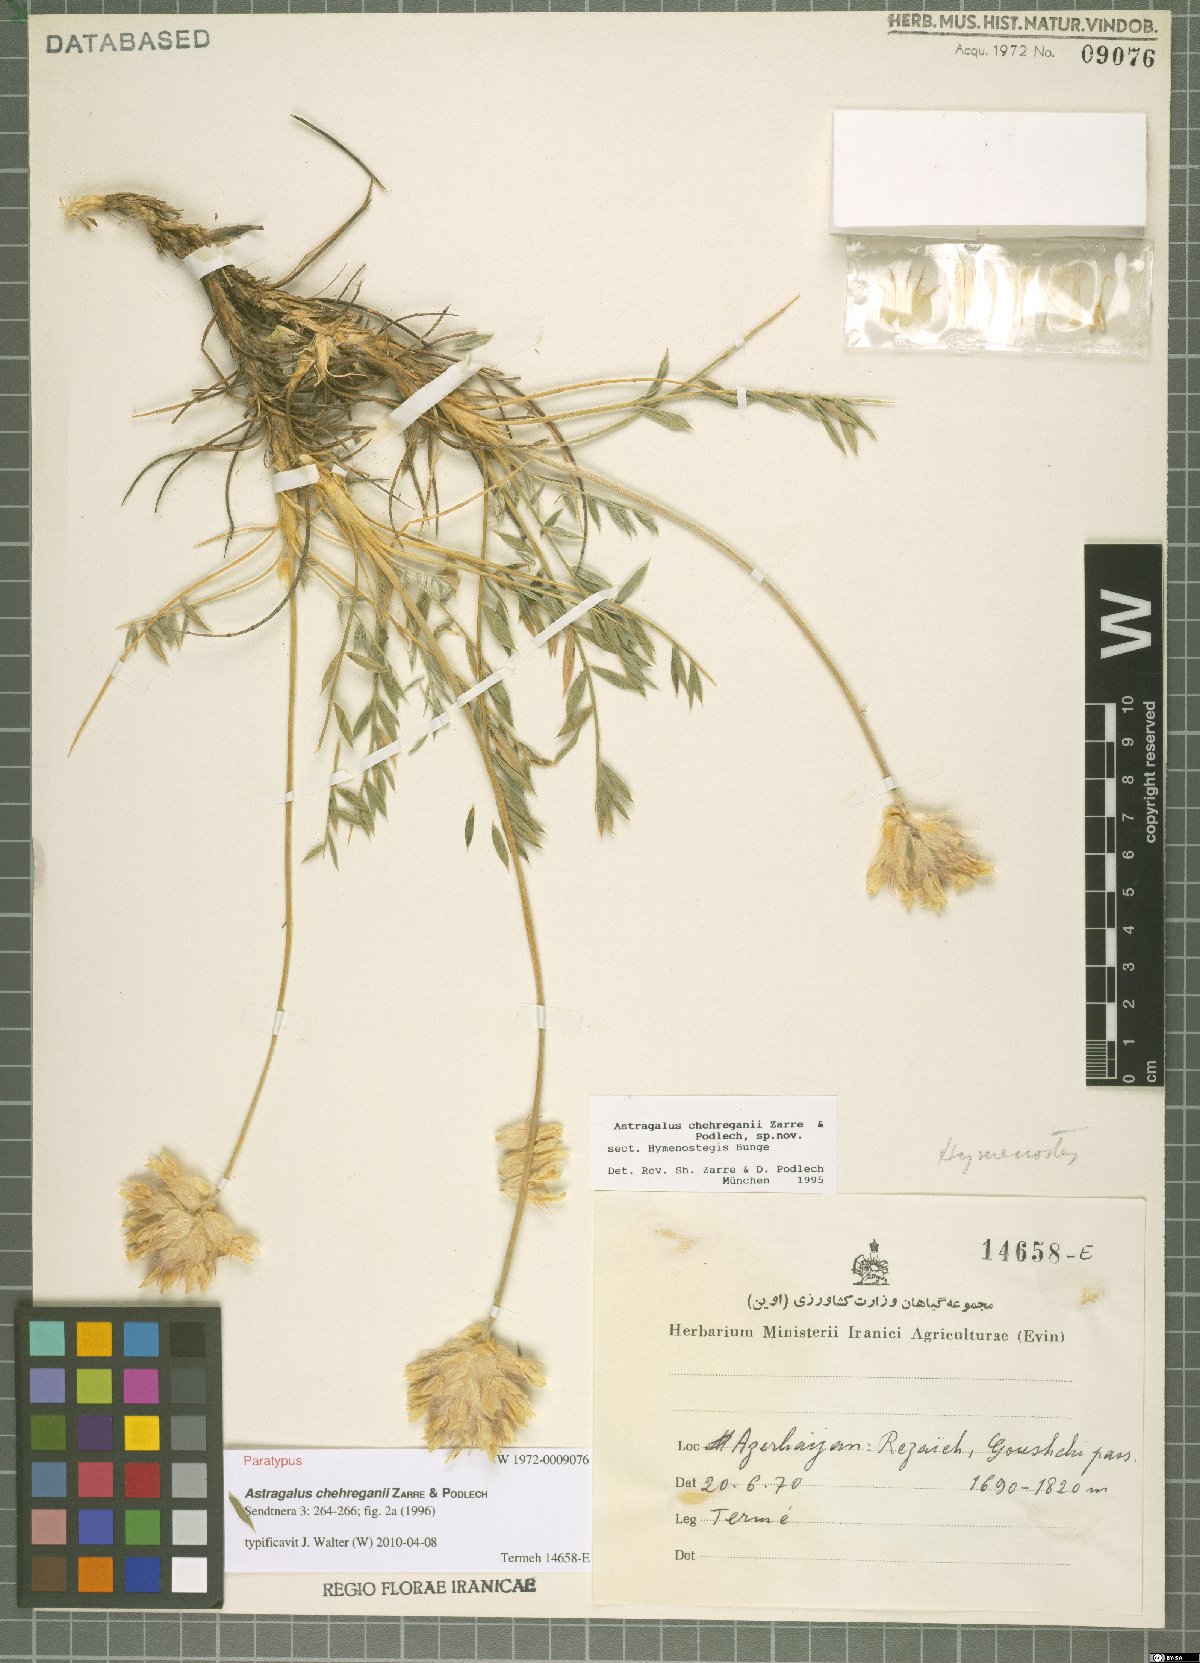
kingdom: Plantae
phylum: Tracheophyta
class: Magnoliopsida
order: Fabales
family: Fabaceae
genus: Astragalus
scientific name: Astragalus chehreganii
